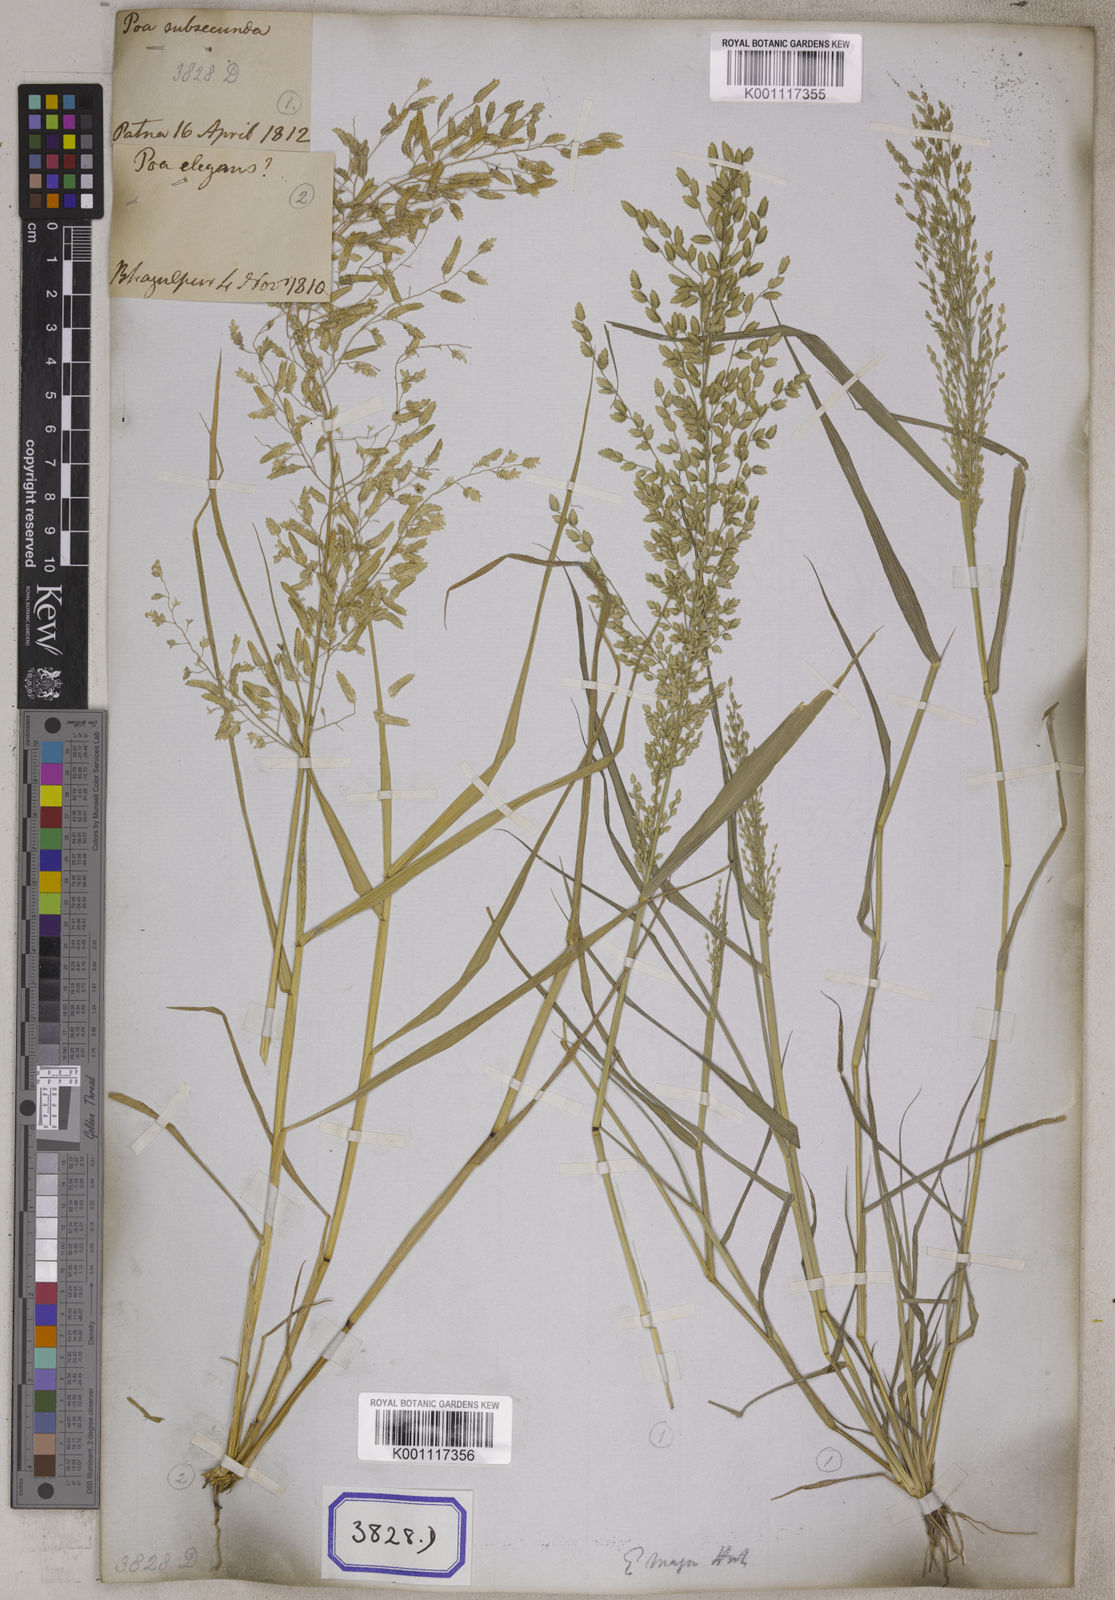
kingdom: Plantae
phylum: Tracheophyta
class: Liliopsida
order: Poales
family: Poaceae
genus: Eragrostis
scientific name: Eragrostis
